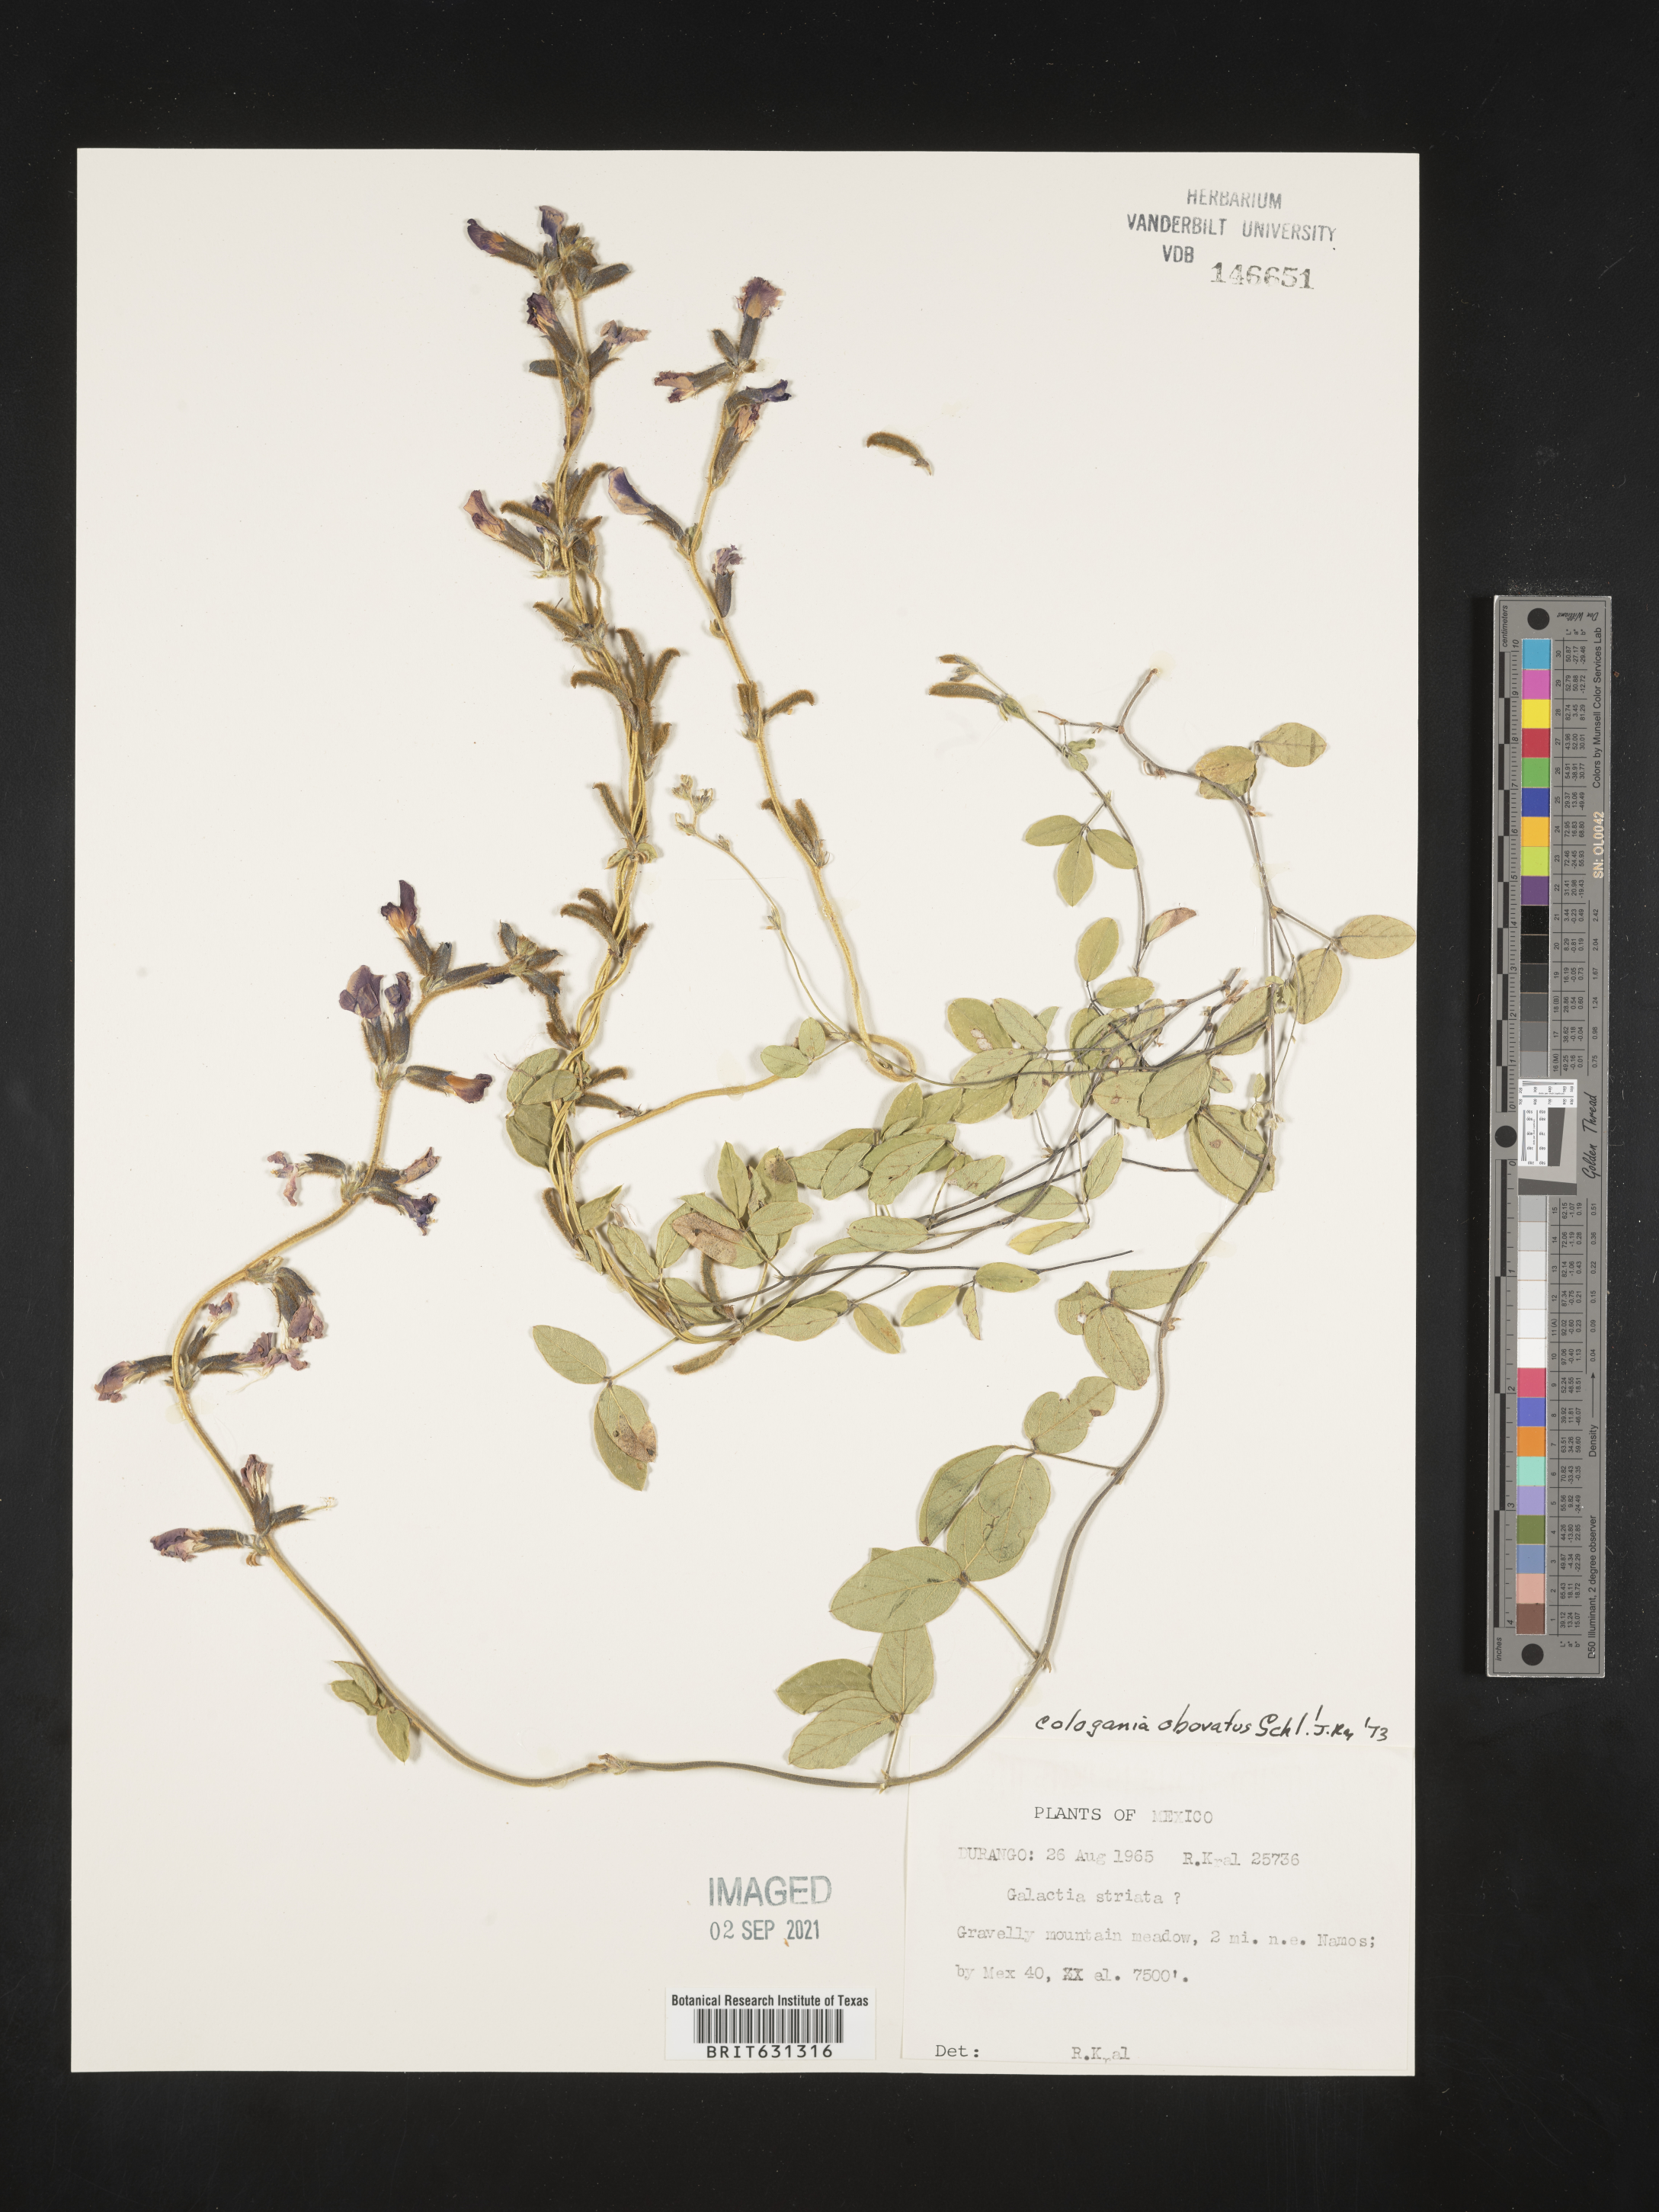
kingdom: Plantae
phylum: Tracheophyta
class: Magnoliopsida
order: Fabales
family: Fabaceae
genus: Cologania
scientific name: Cologania obovata
